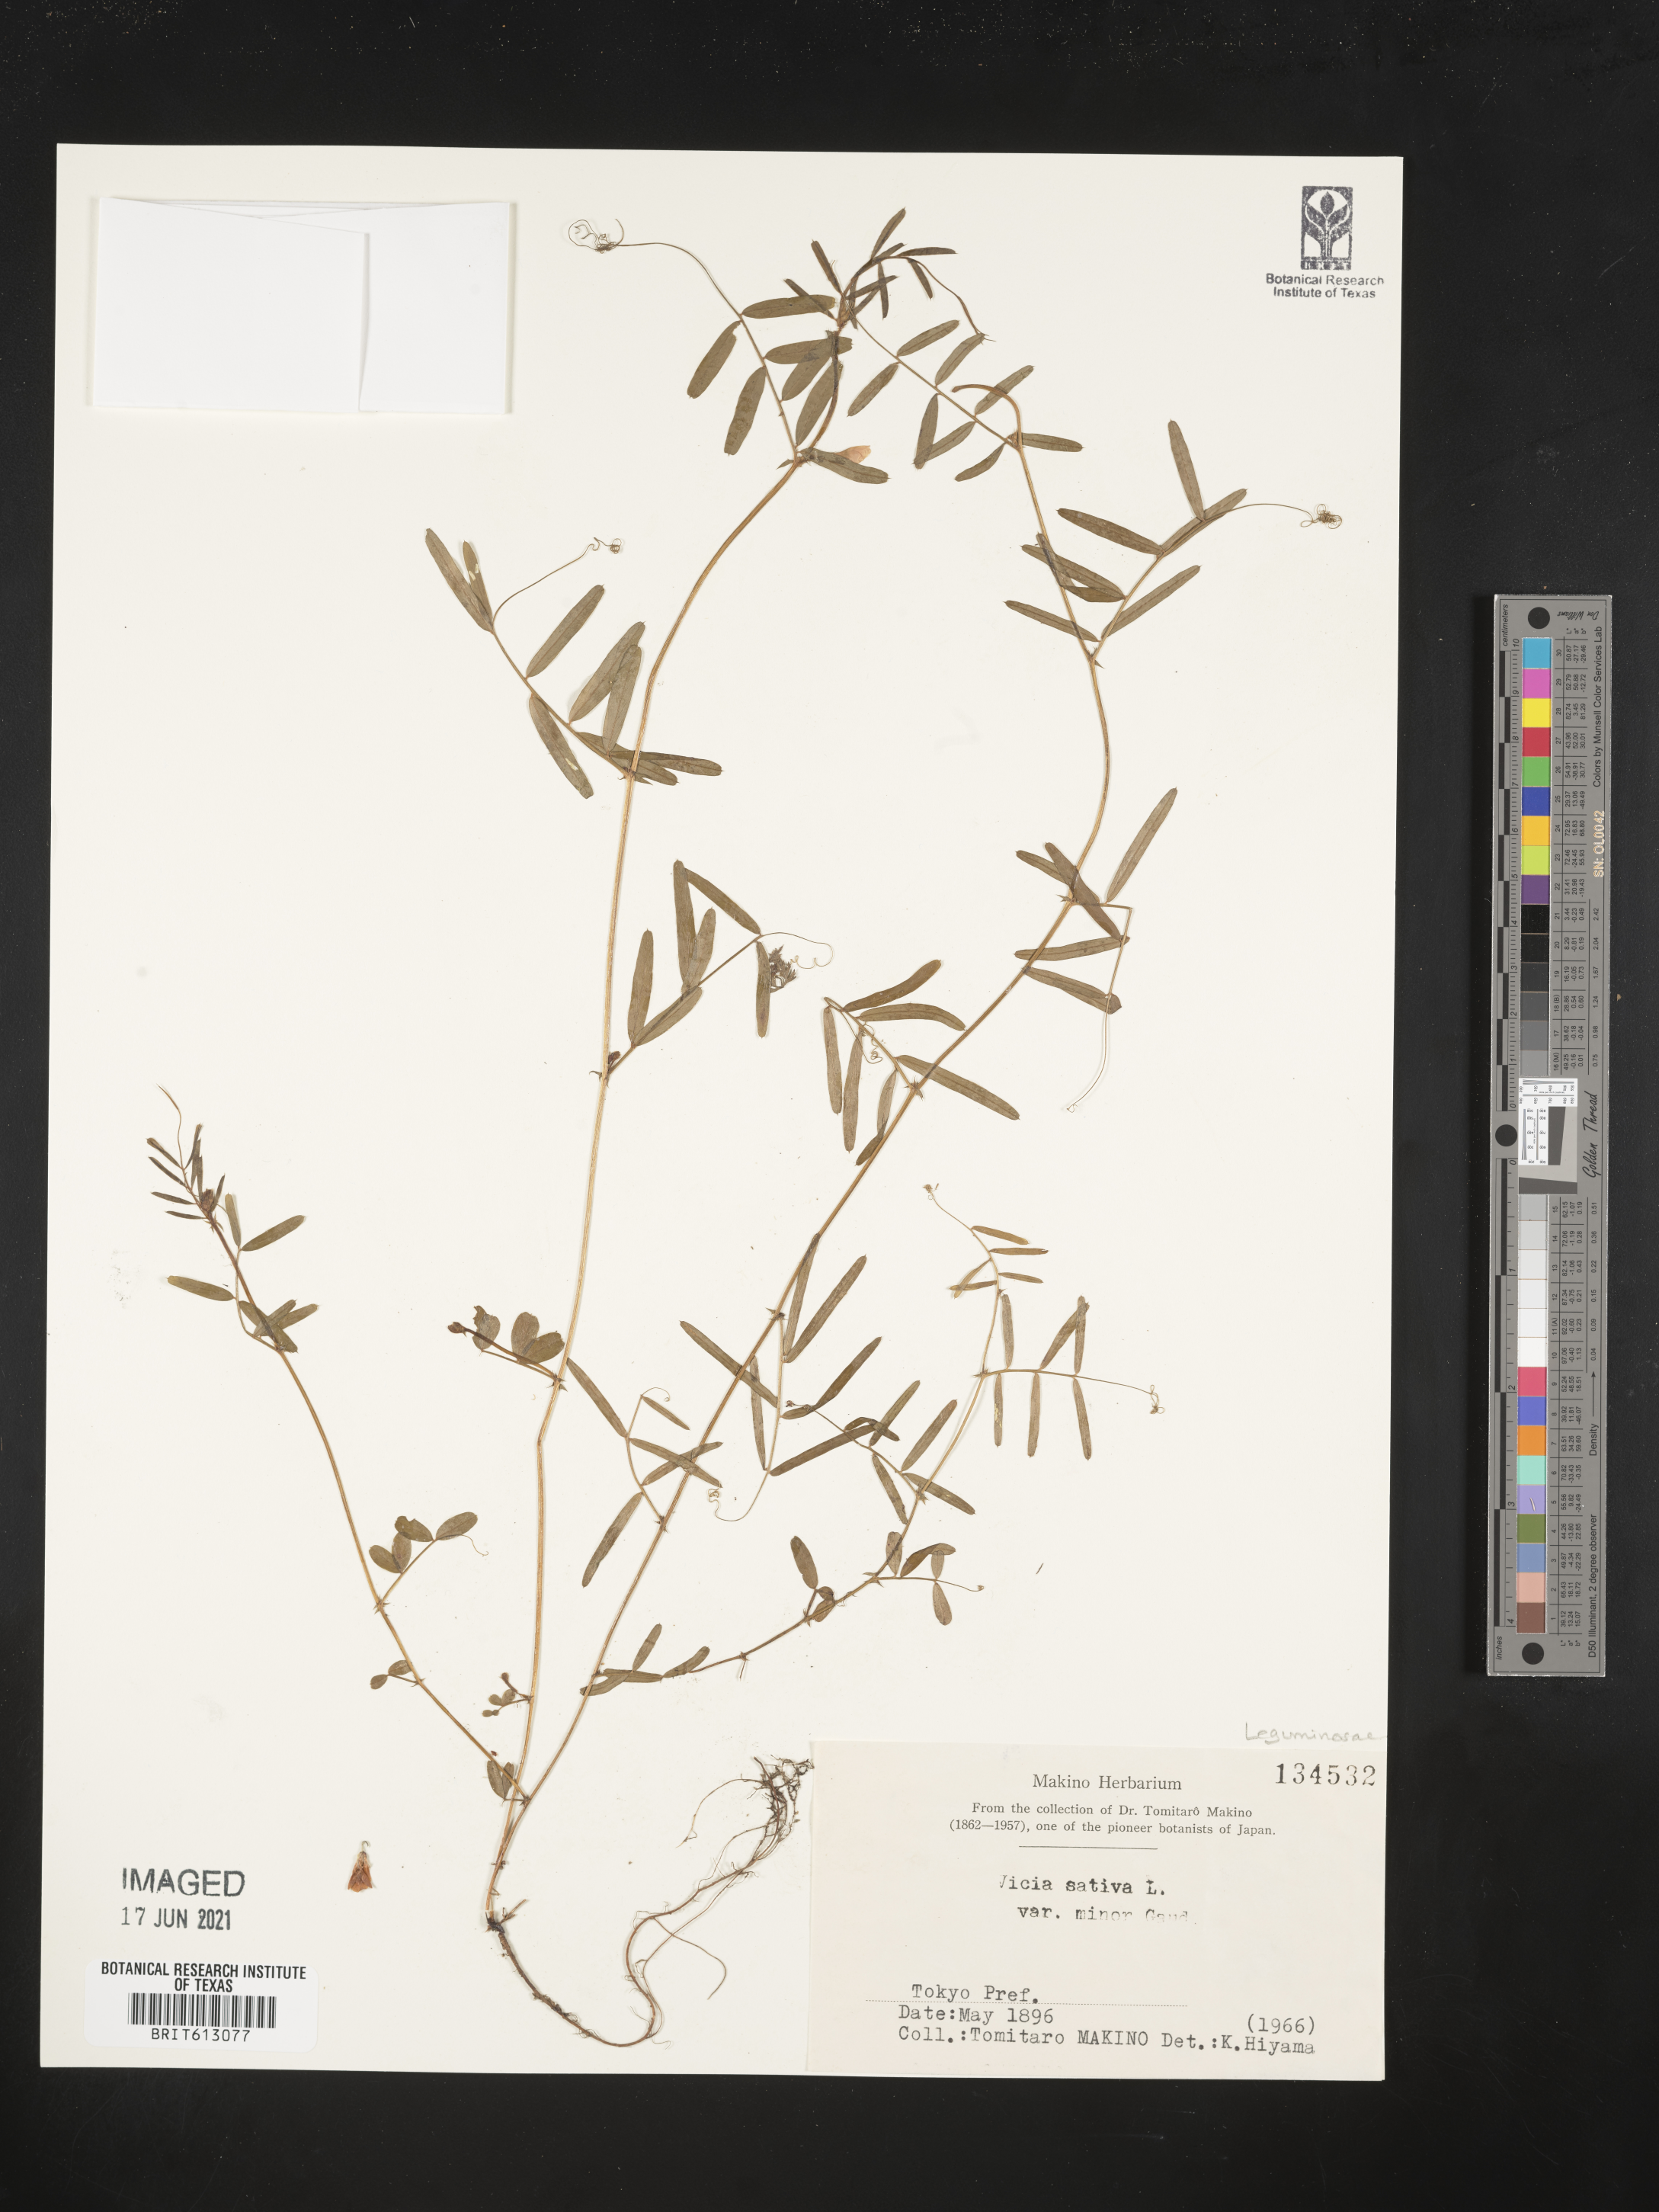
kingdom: Plantae
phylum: Tracheophyta
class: Magnoliopsida
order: Fabales
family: Fabaceae
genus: Vicia
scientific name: Vicia sativa
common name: Garden vetch
